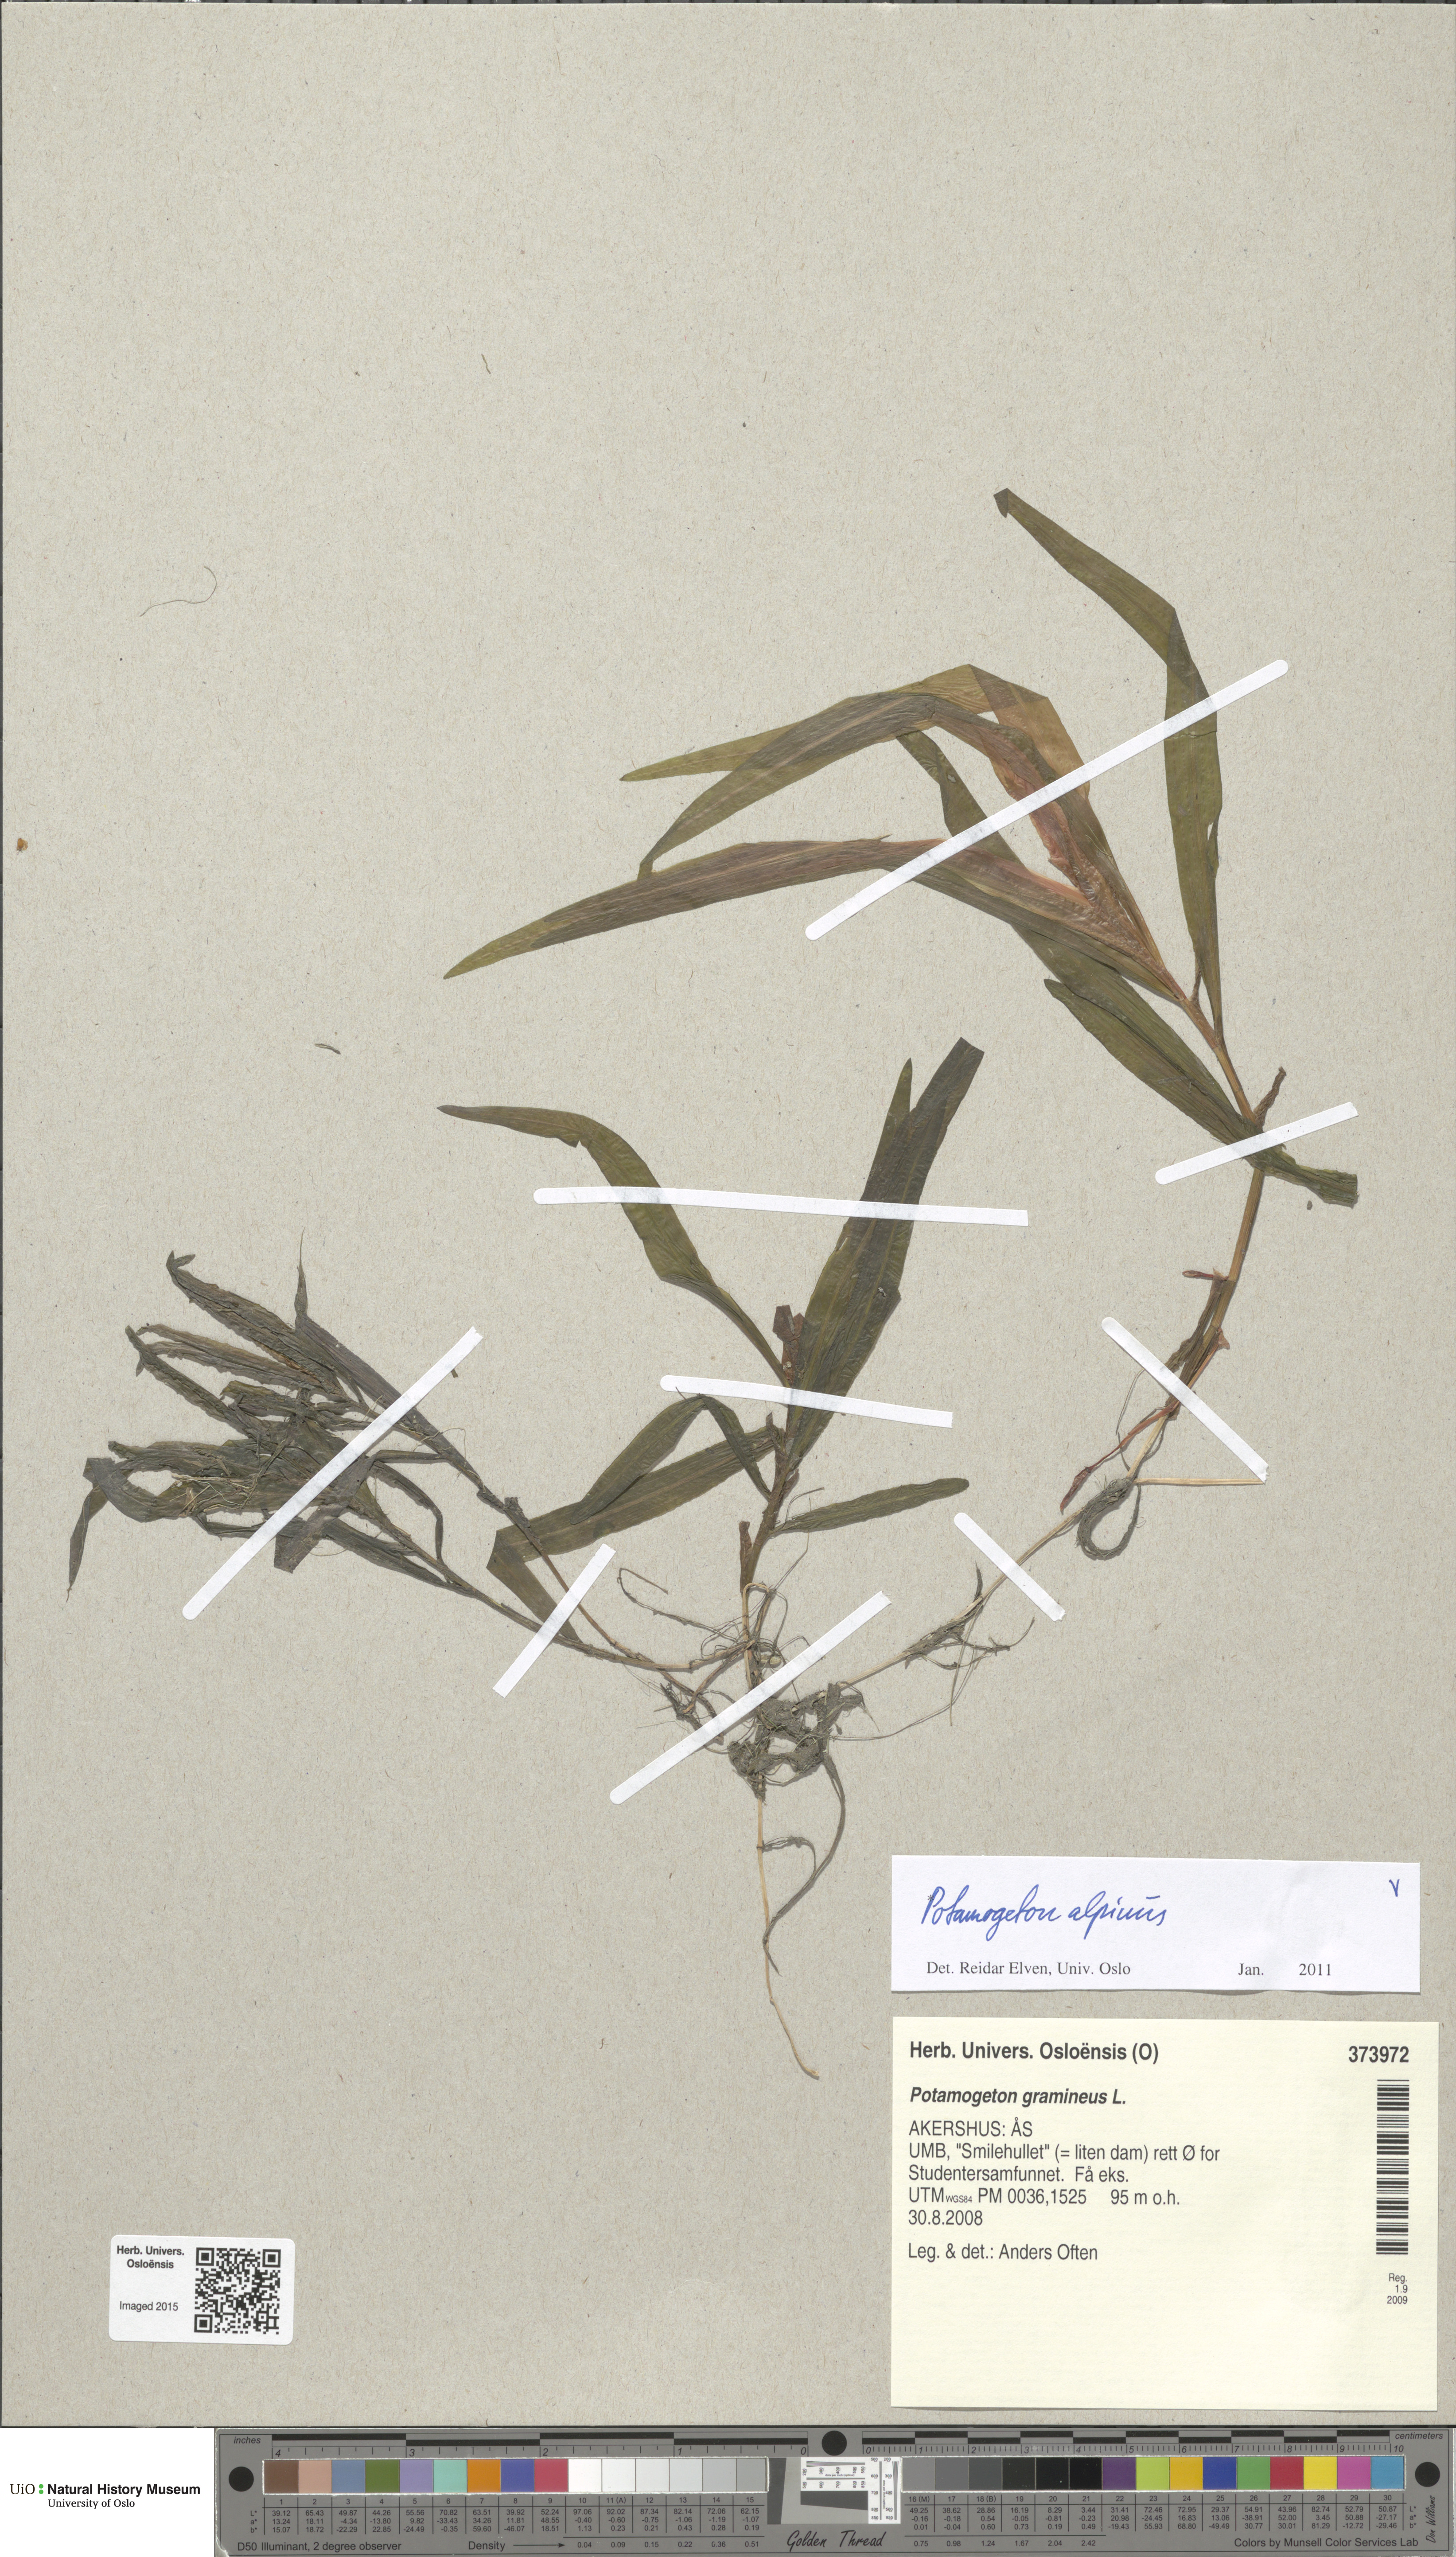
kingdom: Plantae
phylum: Tracheophyta
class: Liliopsida
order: Alismatales
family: Potamogetonaceae
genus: Potamogeton
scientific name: Potamogeton alpinus
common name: Red pondweed
